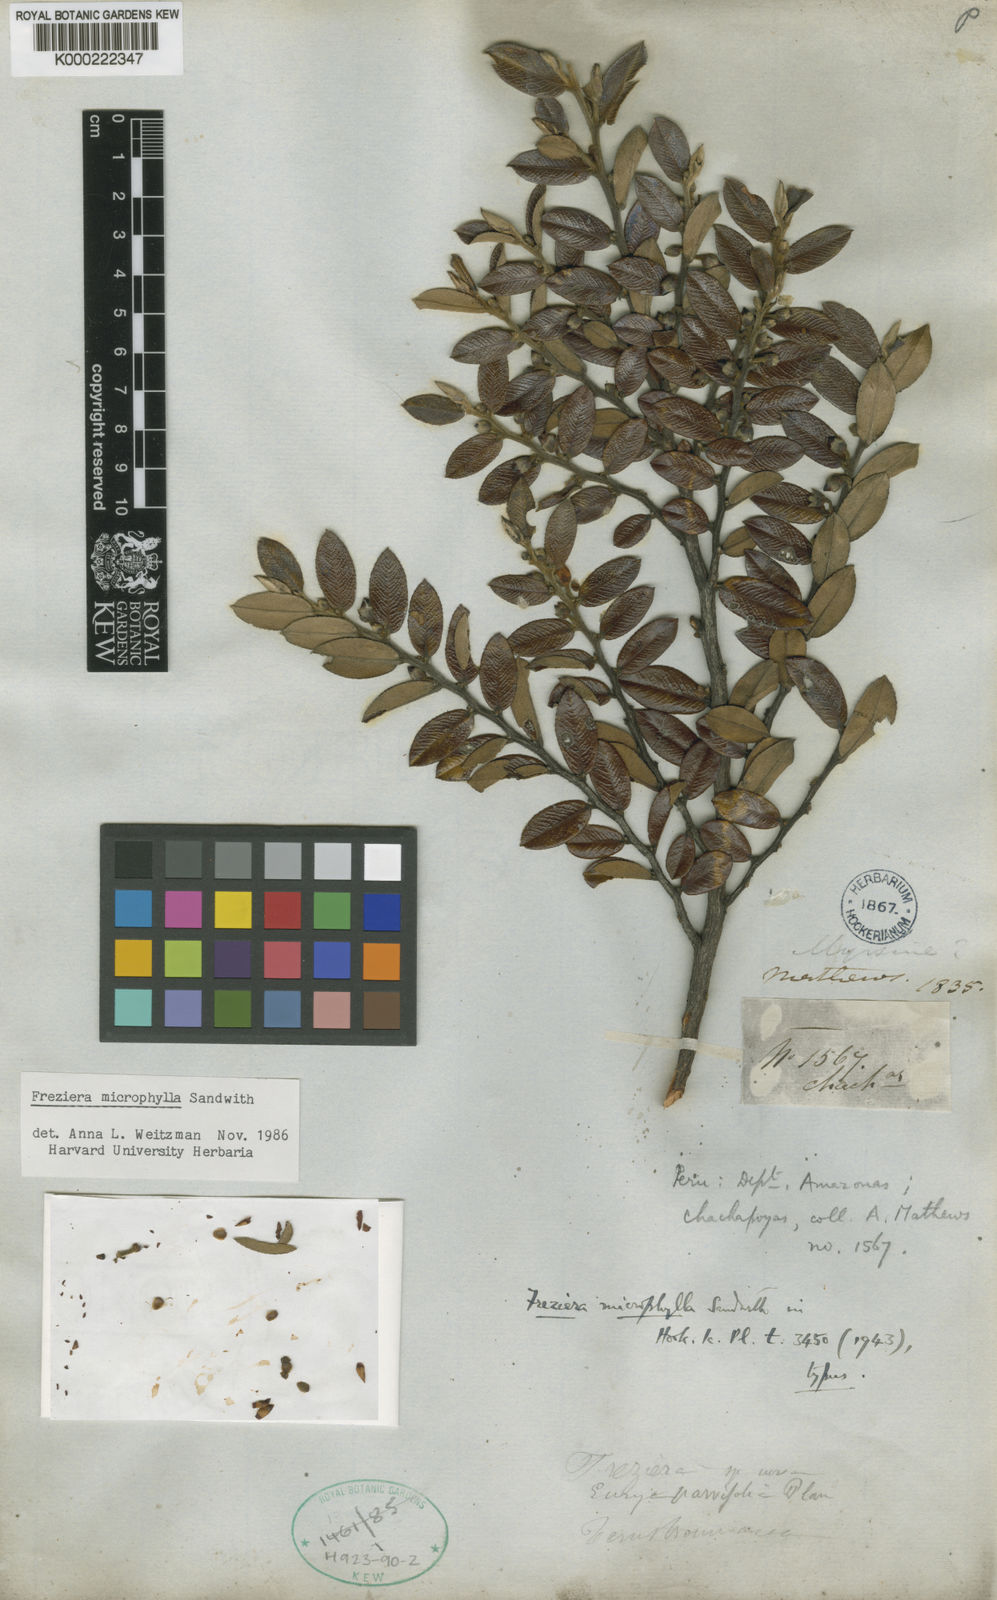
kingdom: Plantae
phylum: Tracheophyta
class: Magnoliopsida
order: Ericales
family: Pentaphylacaceae
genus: Freziera
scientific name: Freziera microphylla
